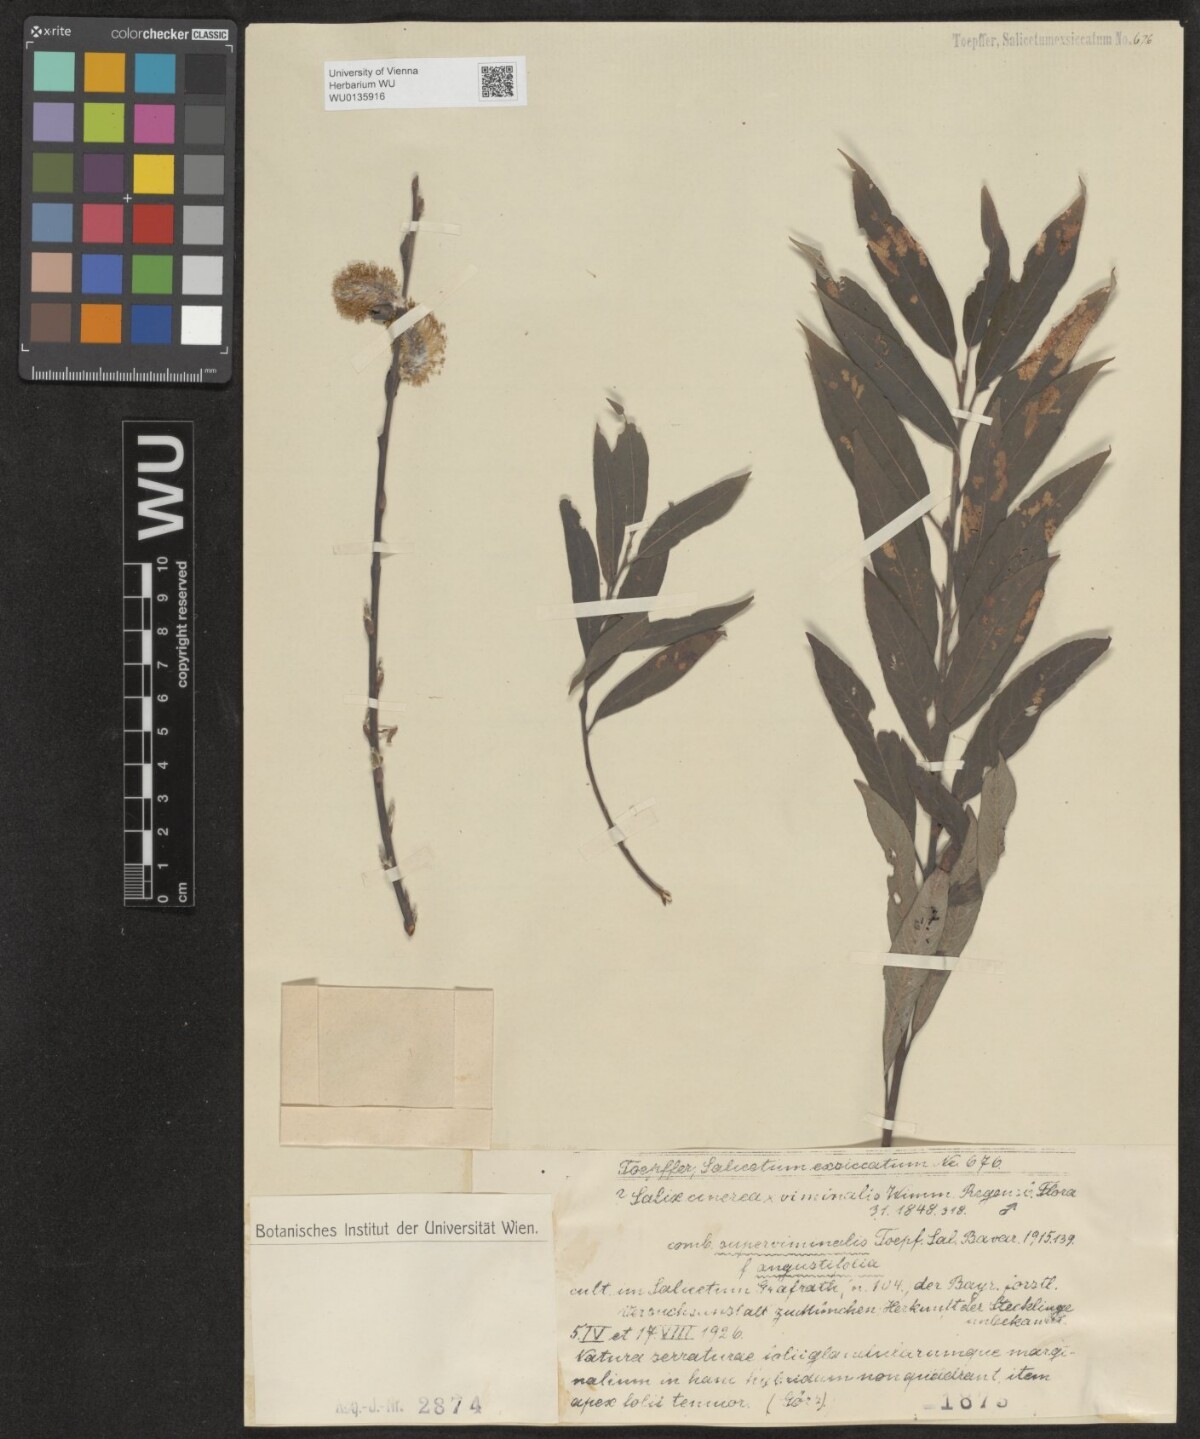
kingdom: Plantae
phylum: Tracheophyta
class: Magnoliopsida
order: Malpighiales
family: Salicaceae
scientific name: Salicaceae
